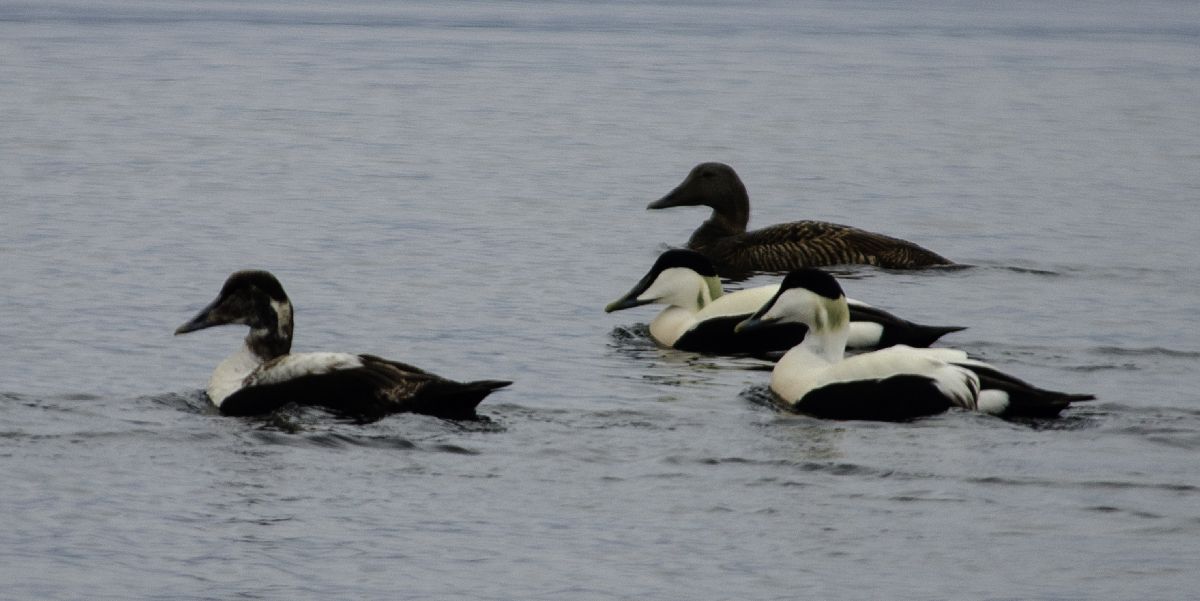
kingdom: Animalia
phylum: Chordata
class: Aves
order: Anseriformes
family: Anatidae
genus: Somateria
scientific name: Somateria mollissima
